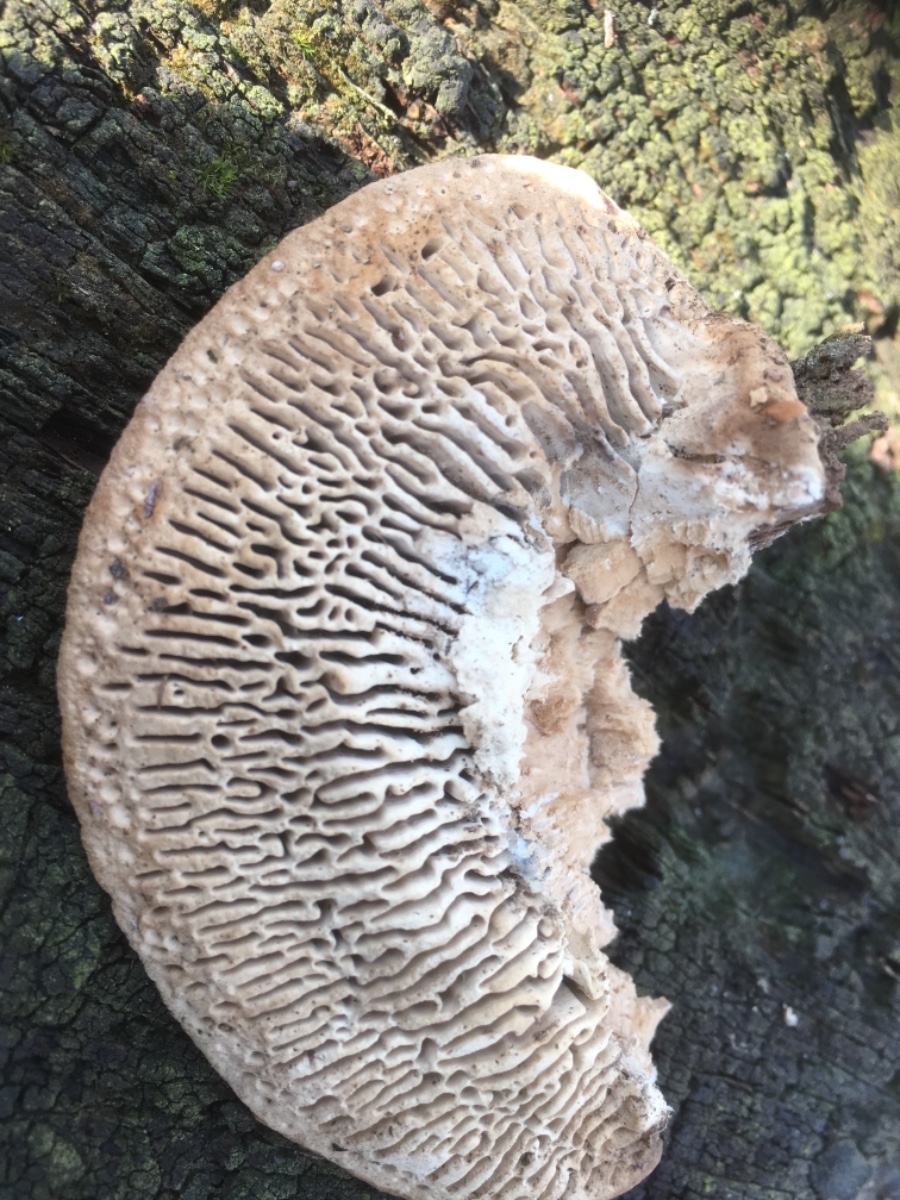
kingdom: Fungi
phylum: Basidiomycota
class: Agaricomycetes
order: Polyporales
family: Fomitopsidaceae
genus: Daedalea
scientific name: Daedalea quercina
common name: ege-labyrintsvamp
